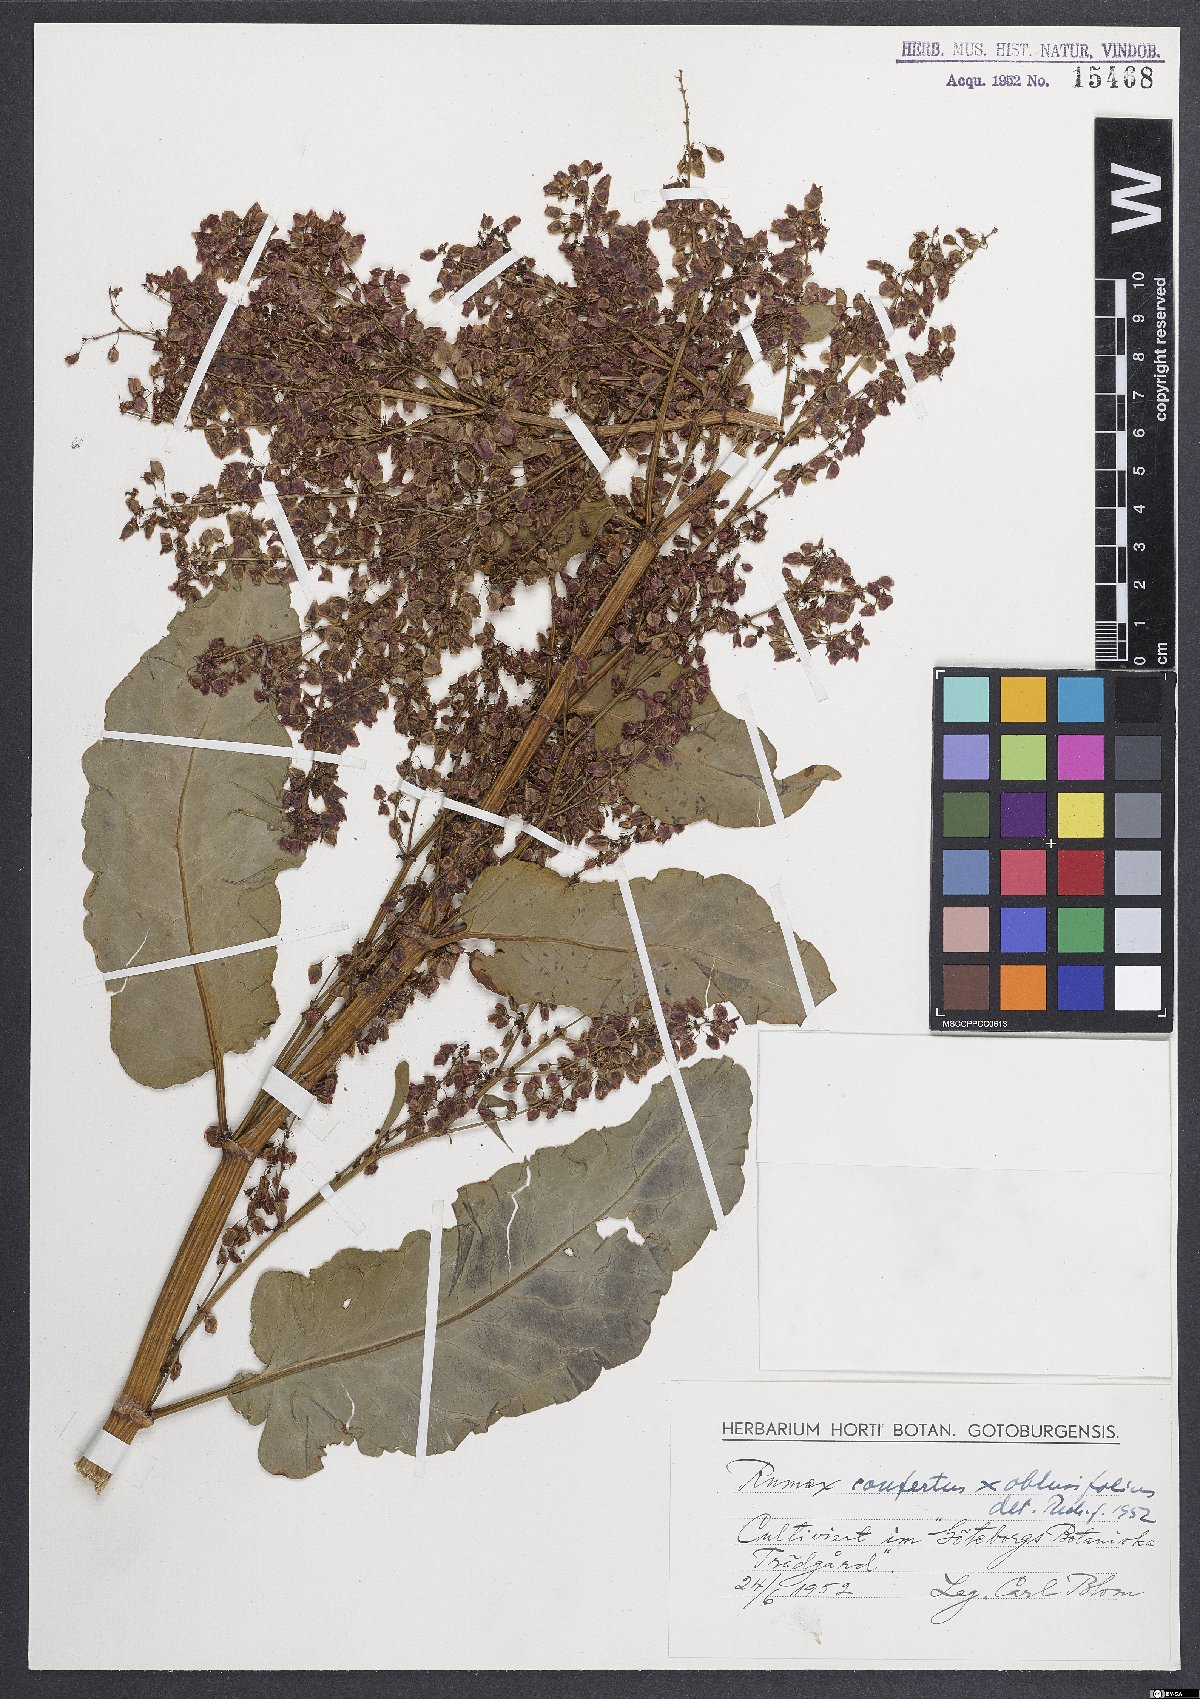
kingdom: Plantae
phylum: Tracheophyta
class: Magnoliopsida
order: Caryophyllales
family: Polygonaceae
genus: Rumex
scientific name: Rumex borbasii
